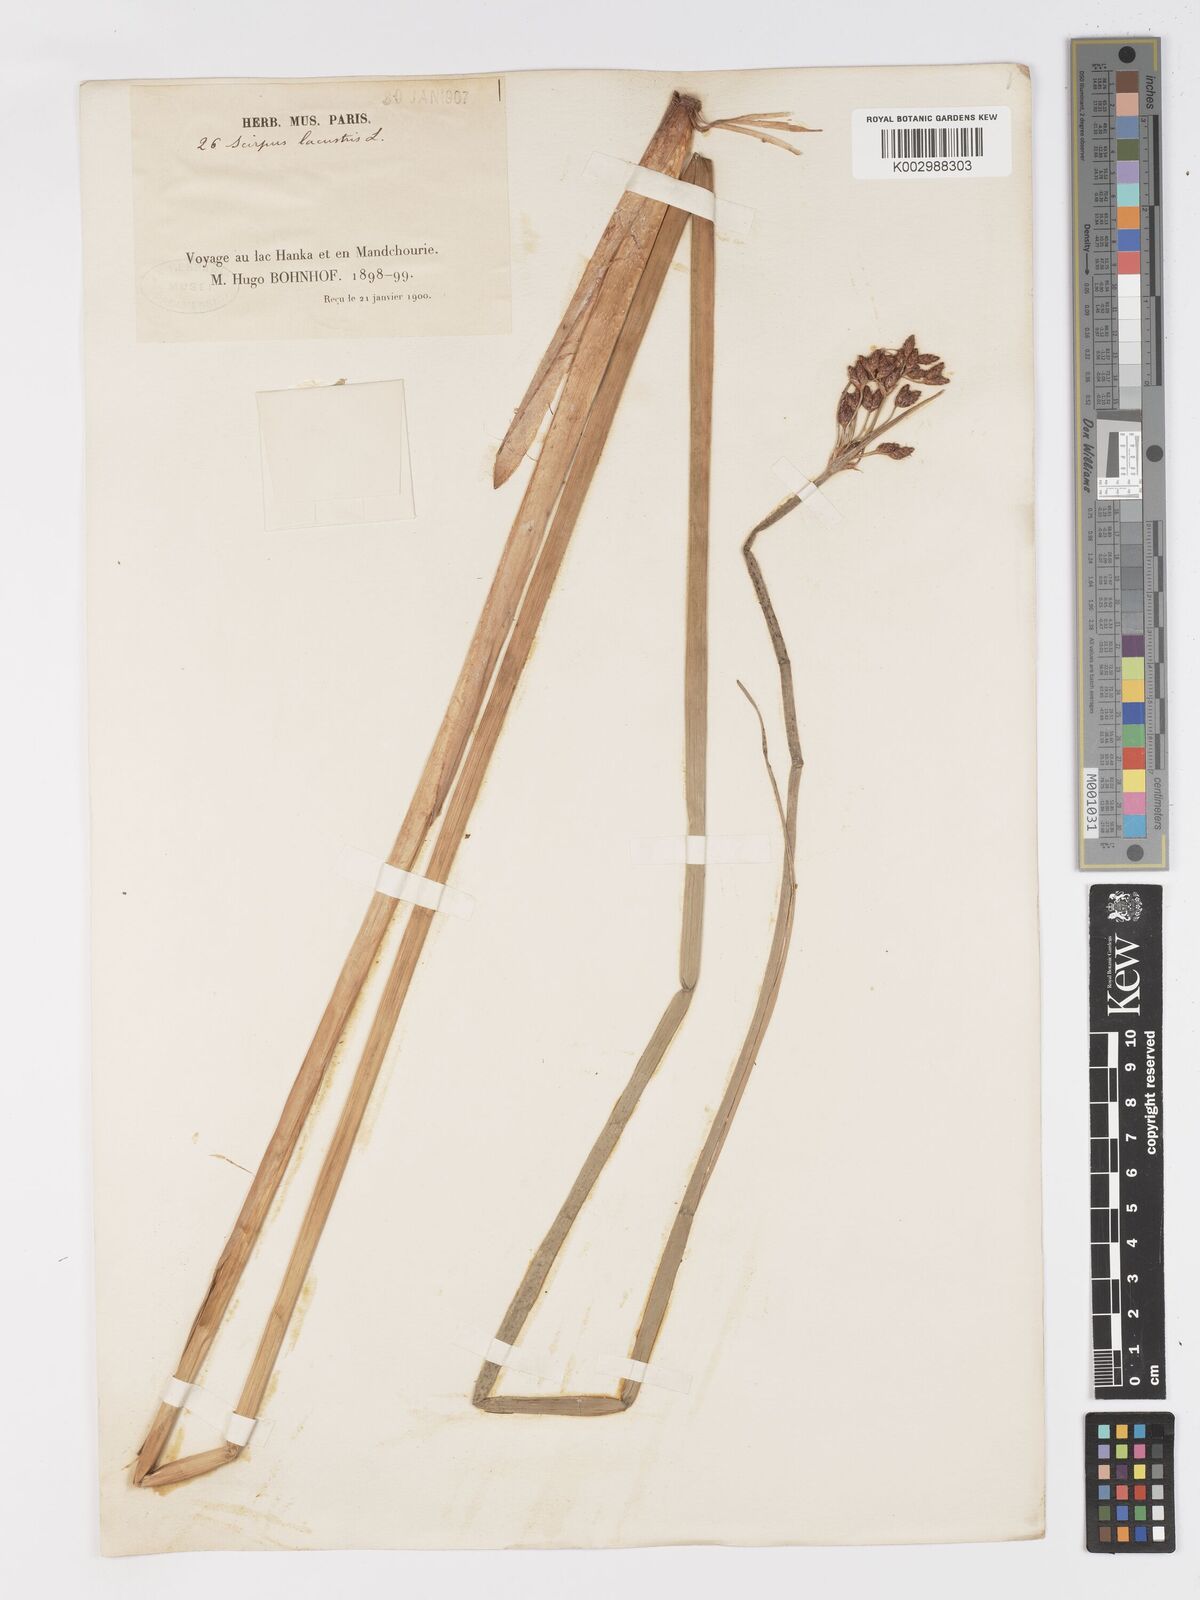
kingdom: Plantae
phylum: Tracheophyta
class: Liliopsida
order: Poales
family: Cyperaceae
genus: Schoenoplectus
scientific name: Schoenoplectus lacustris
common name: Common club-rush
